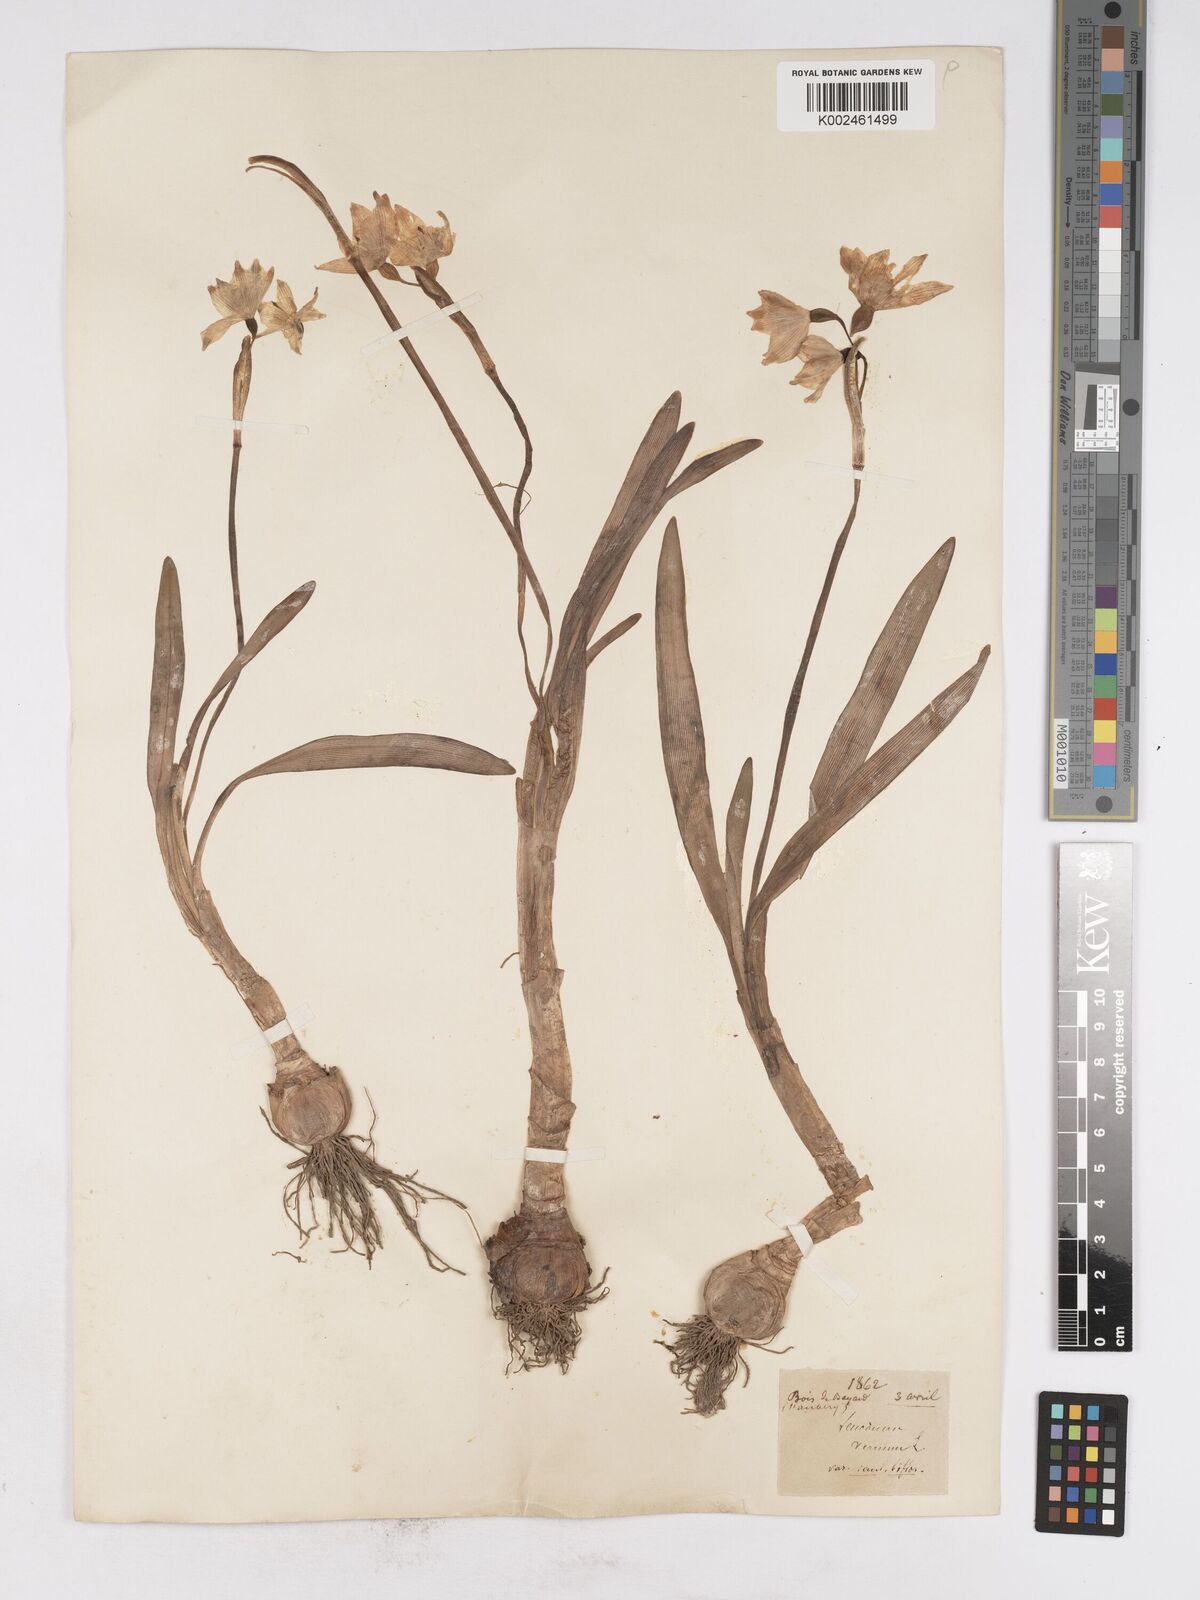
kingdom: Plantae
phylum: Tracheophyta
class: Liliopsida
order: Asparagales
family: Amaryllidaceae
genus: Leucojum
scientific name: Leucojum vernum
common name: Spring snowflake
